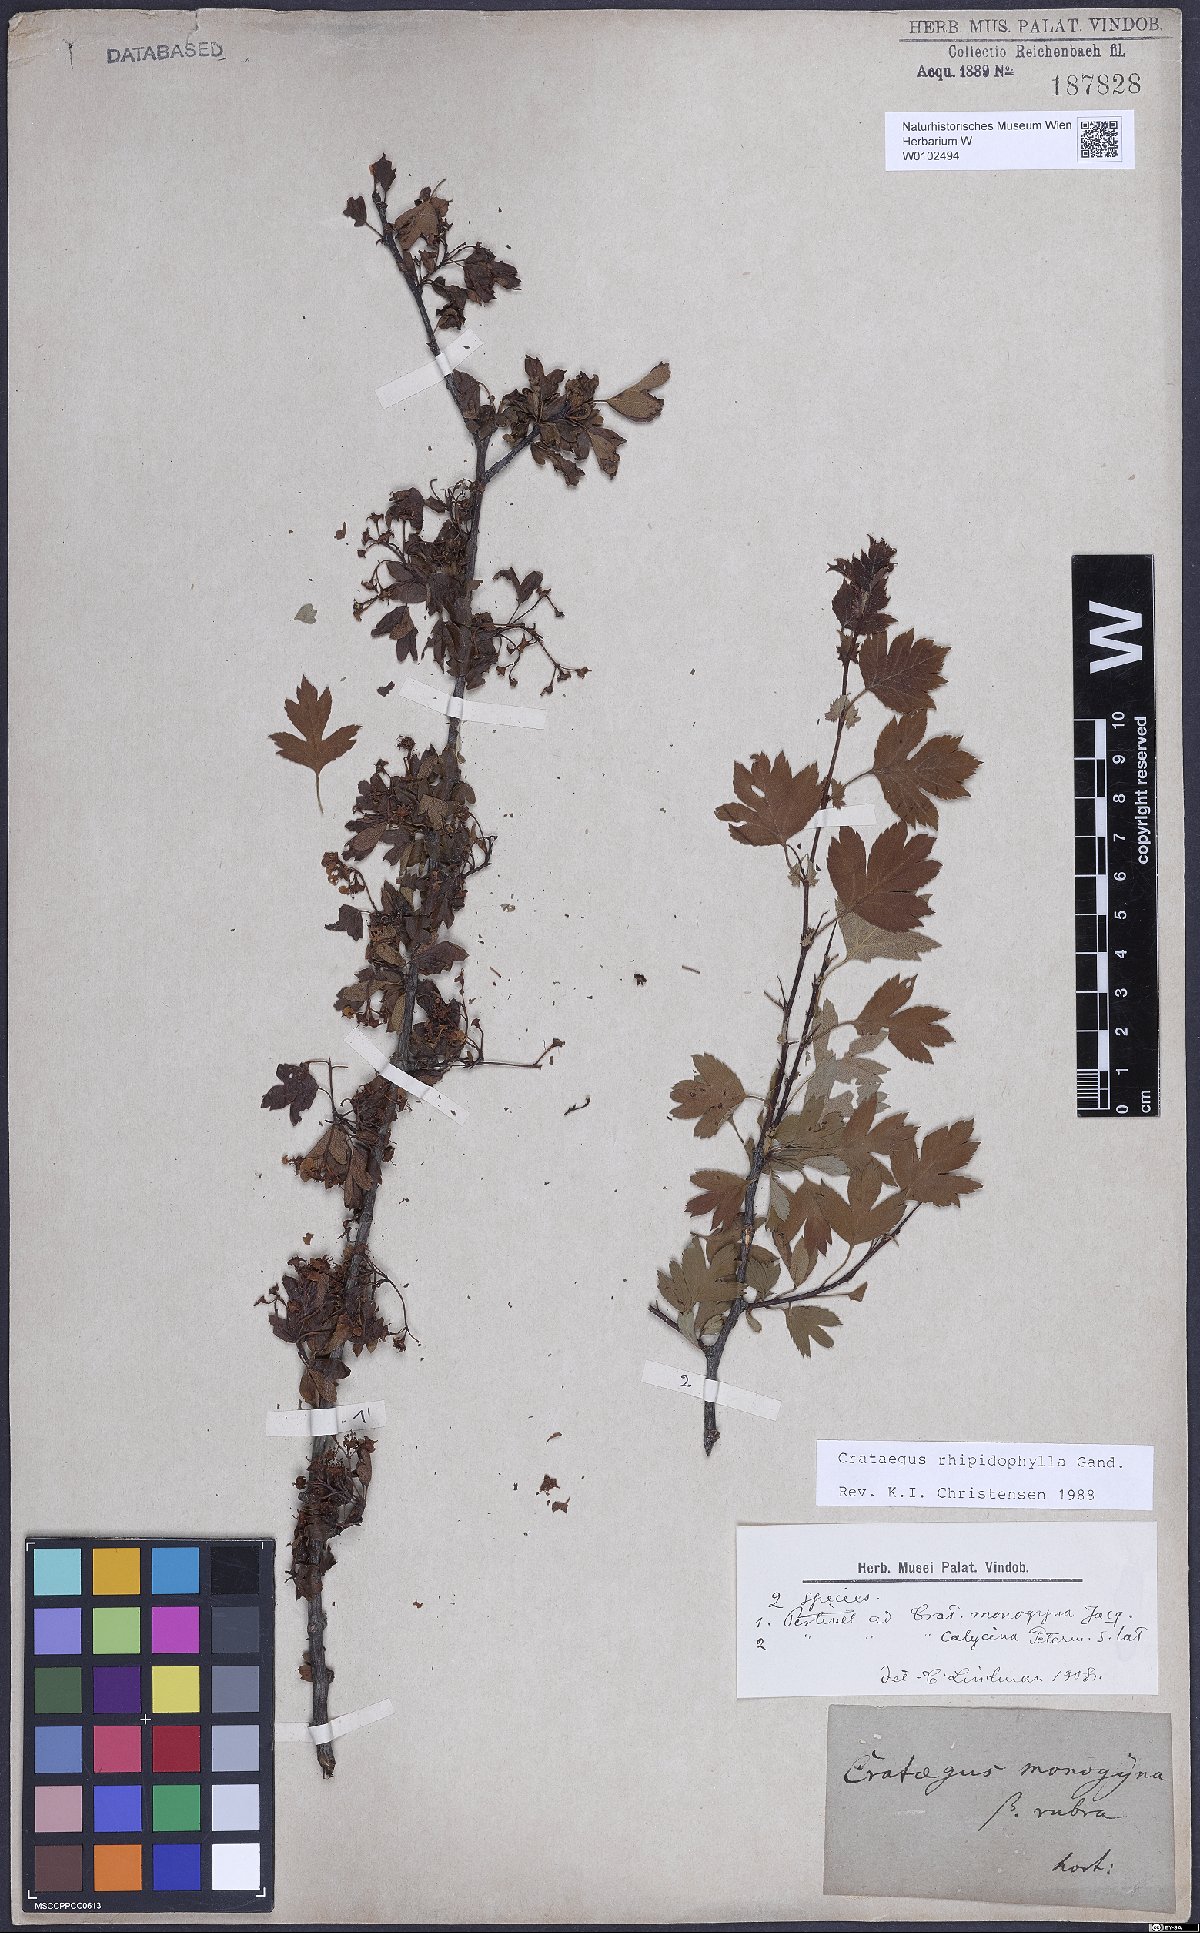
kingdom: Plantae
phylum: Tracheophyta
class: Magnoliopsida
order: Rosales
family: Rosaceae
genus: Crataegus
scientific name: Crataegus rhipidophylla
